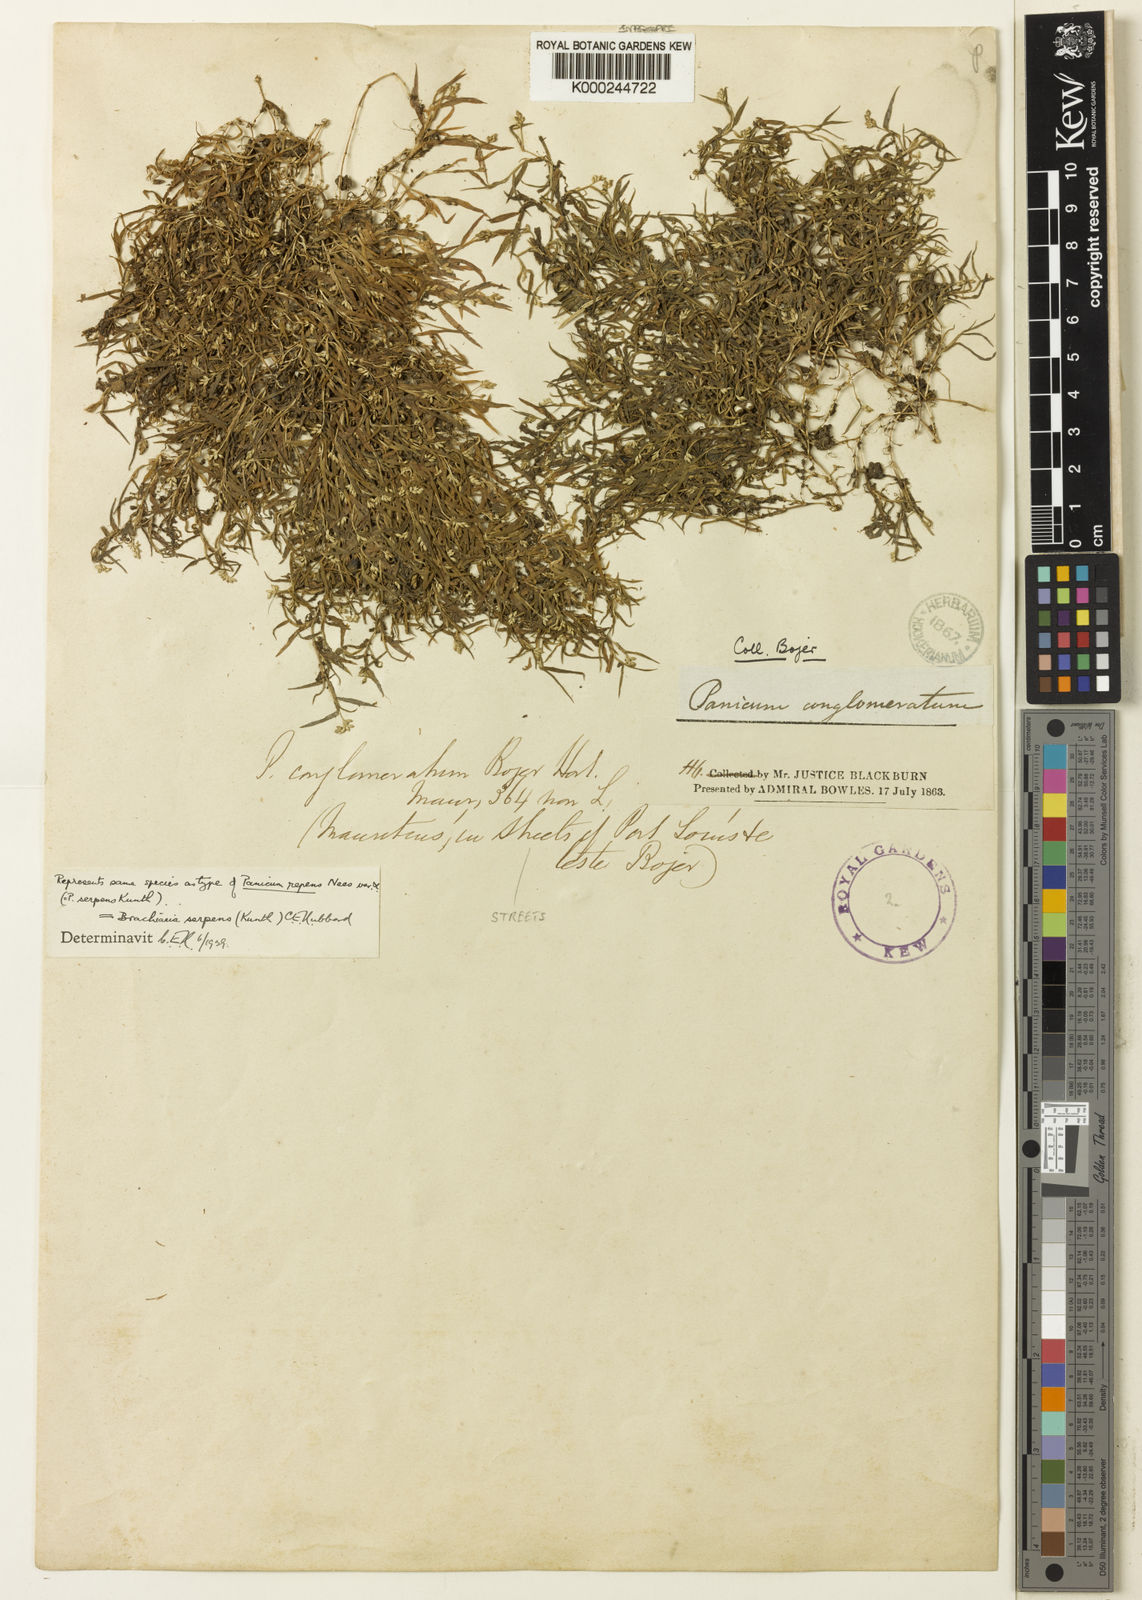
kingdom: Plantae
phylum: Tracheophyta
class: Liliopsida
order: Poales
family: Poaceae
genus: Urochloa
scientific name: Urochloa Brachiaria serpens
